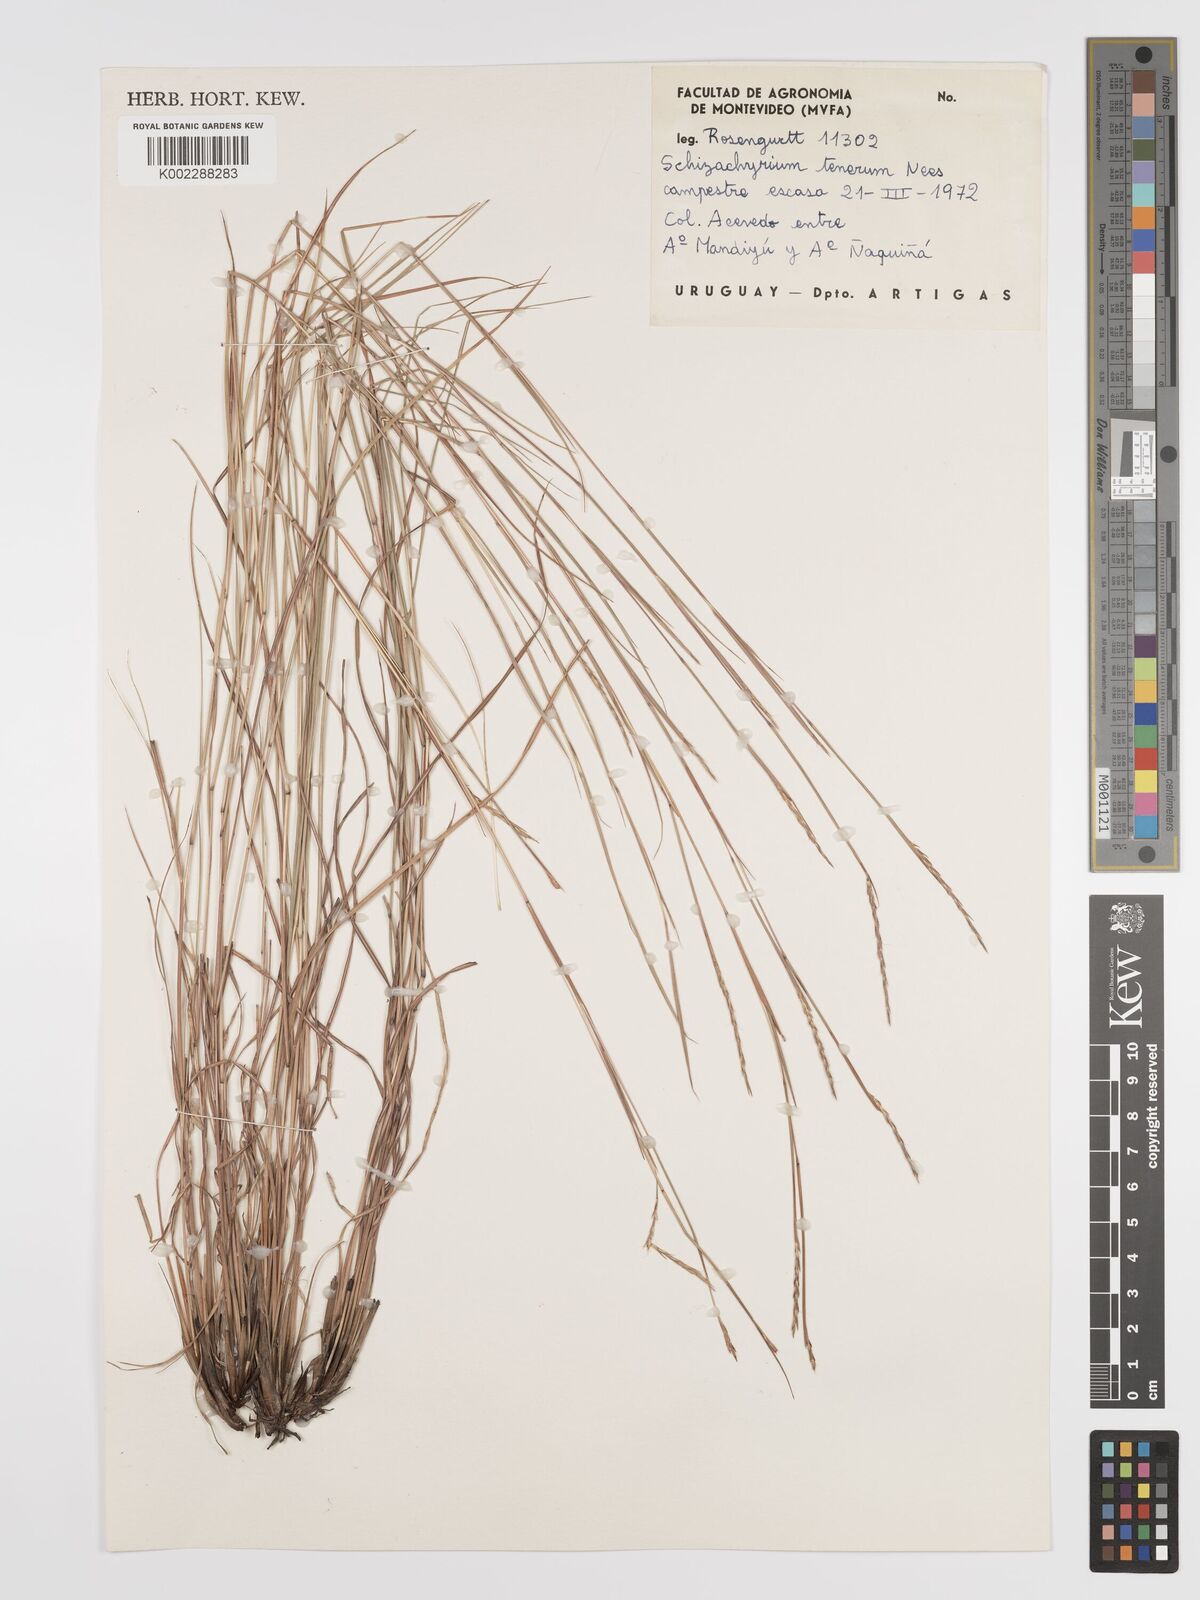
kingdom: Plantae
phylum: Tracheophyta
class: Liliopsida
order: Poales
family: Poaceae
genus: Andropogon
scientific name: Andropogon tener
